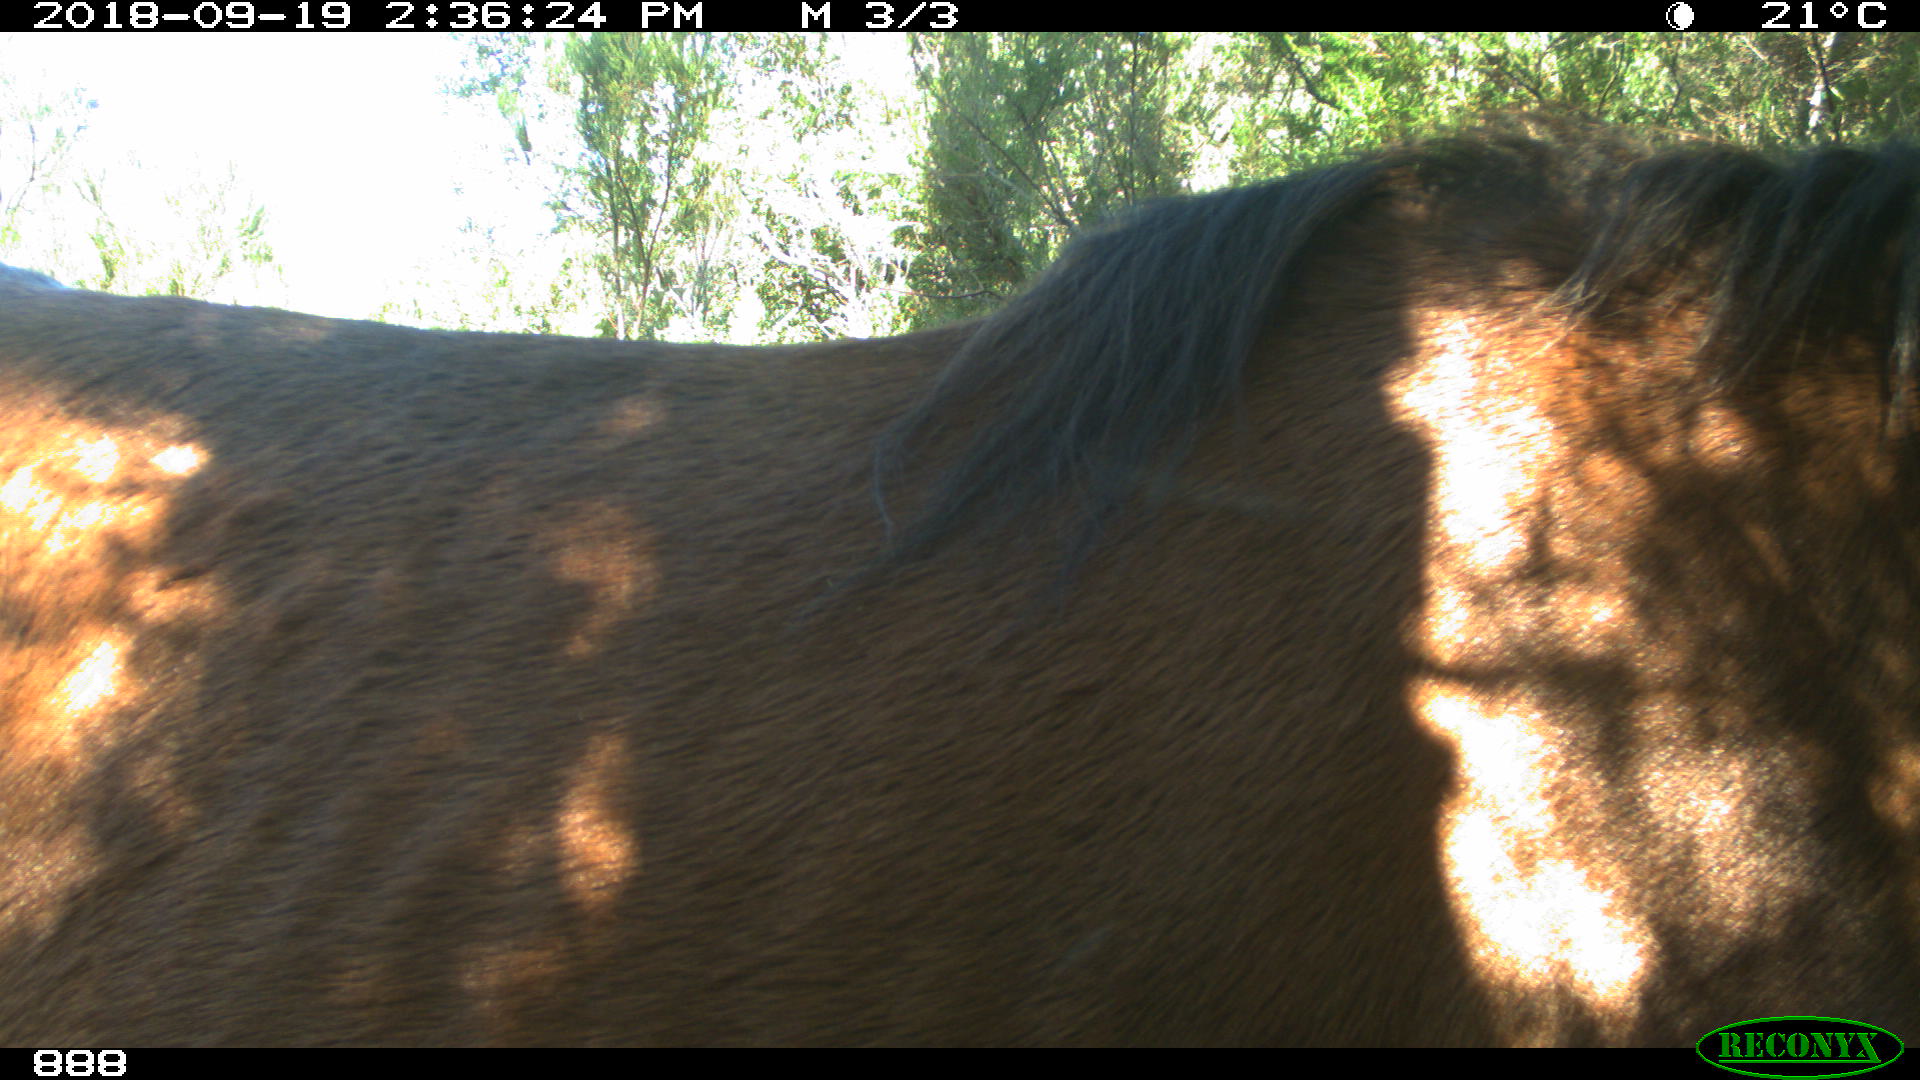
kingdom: Animalia
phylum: Chordata
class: Mammalia
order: Perissodactyla
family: Equidae
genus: Equus
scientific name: Equus caballus
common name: Horse
